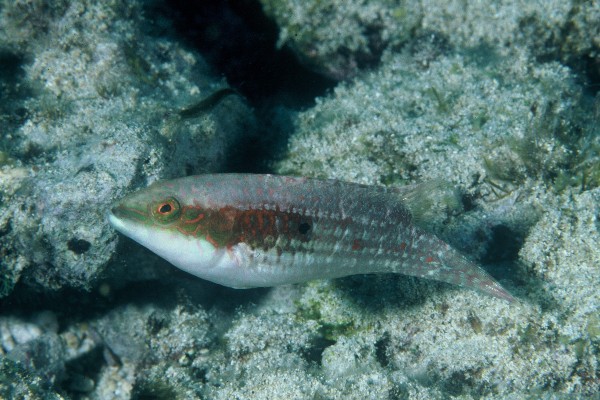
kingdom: Animalia
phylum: Chordata
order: Perciformes
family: Labridae
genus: Oxycheilinus
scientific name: Oxycheilinus bimaculatus
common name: Comettailed wrasse
